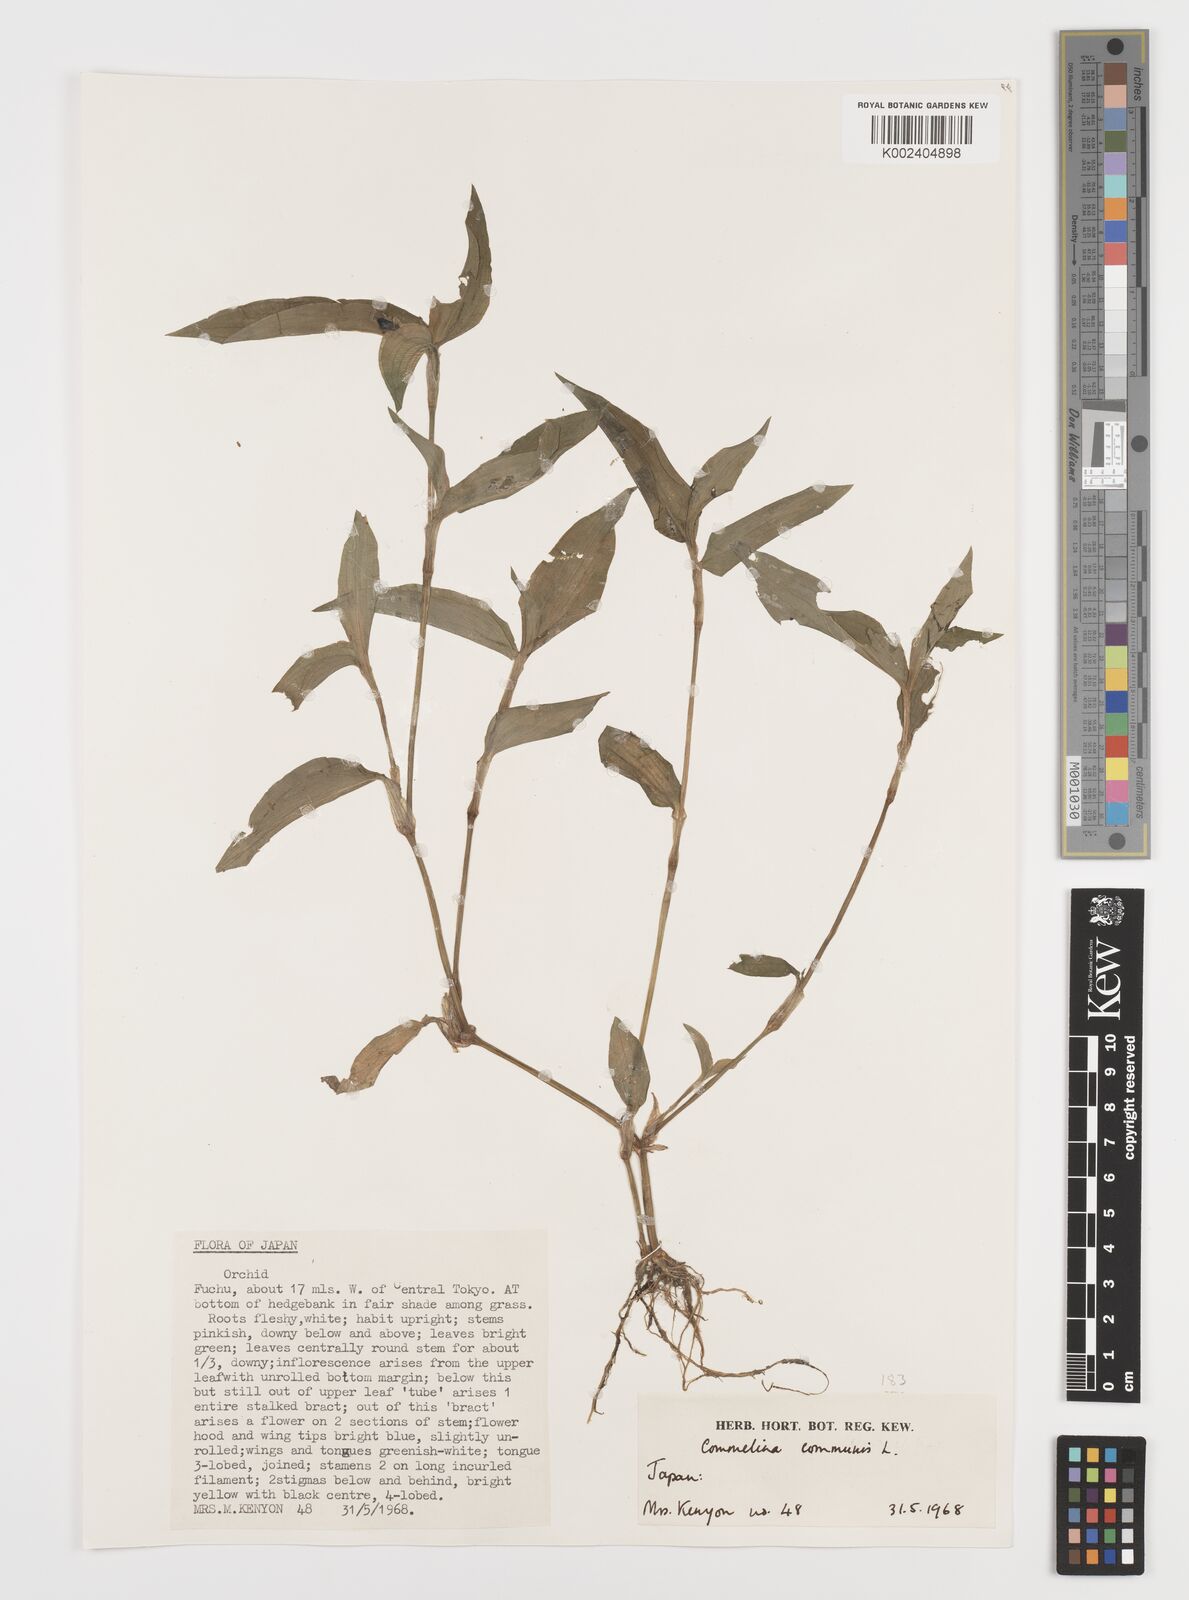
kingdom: Plantae
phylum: Tracheophyta
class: Liliopsida
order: Commelinales
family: Commelinaceae
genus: Commelina
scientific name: Commelina communis
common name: Asiatic dayflower
